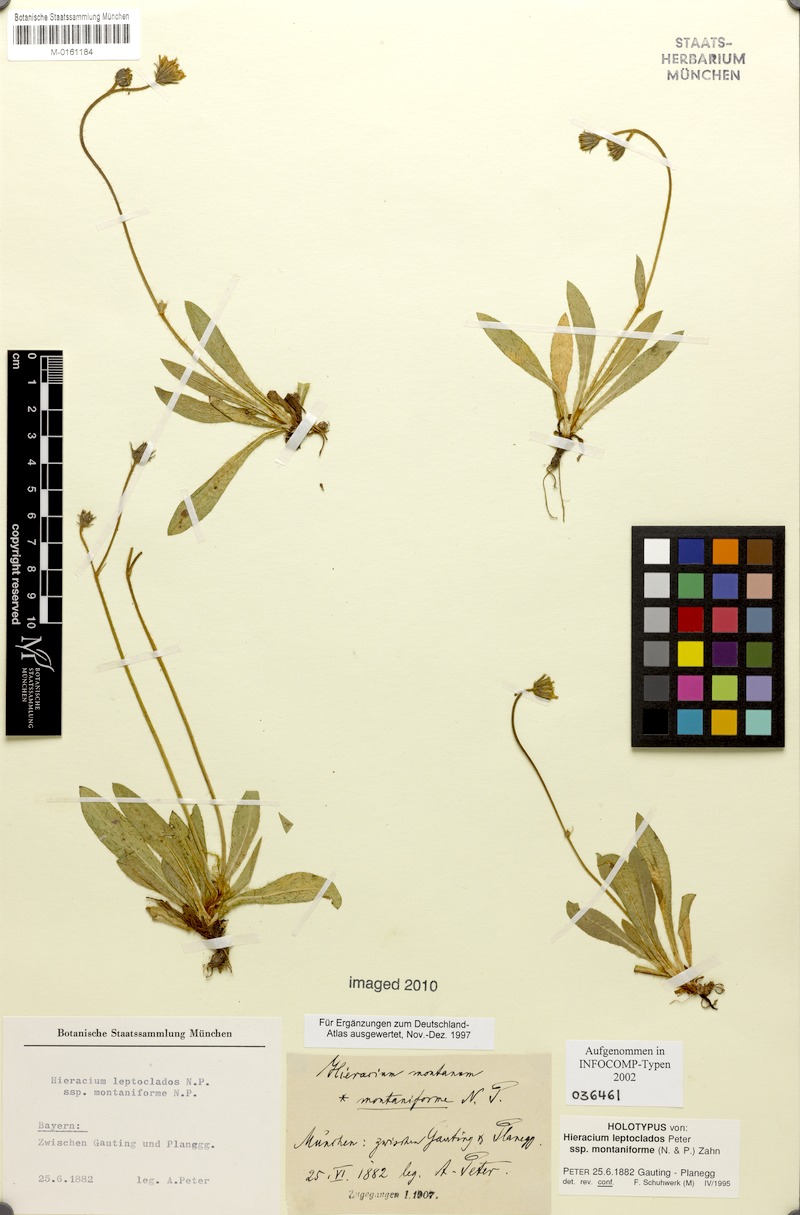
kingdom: Plantae
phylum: Tracheophyta
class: Magnoliopsida
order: Asterales
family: Asteraceae
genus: Pilosella
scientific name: Pilosella leptoclados
